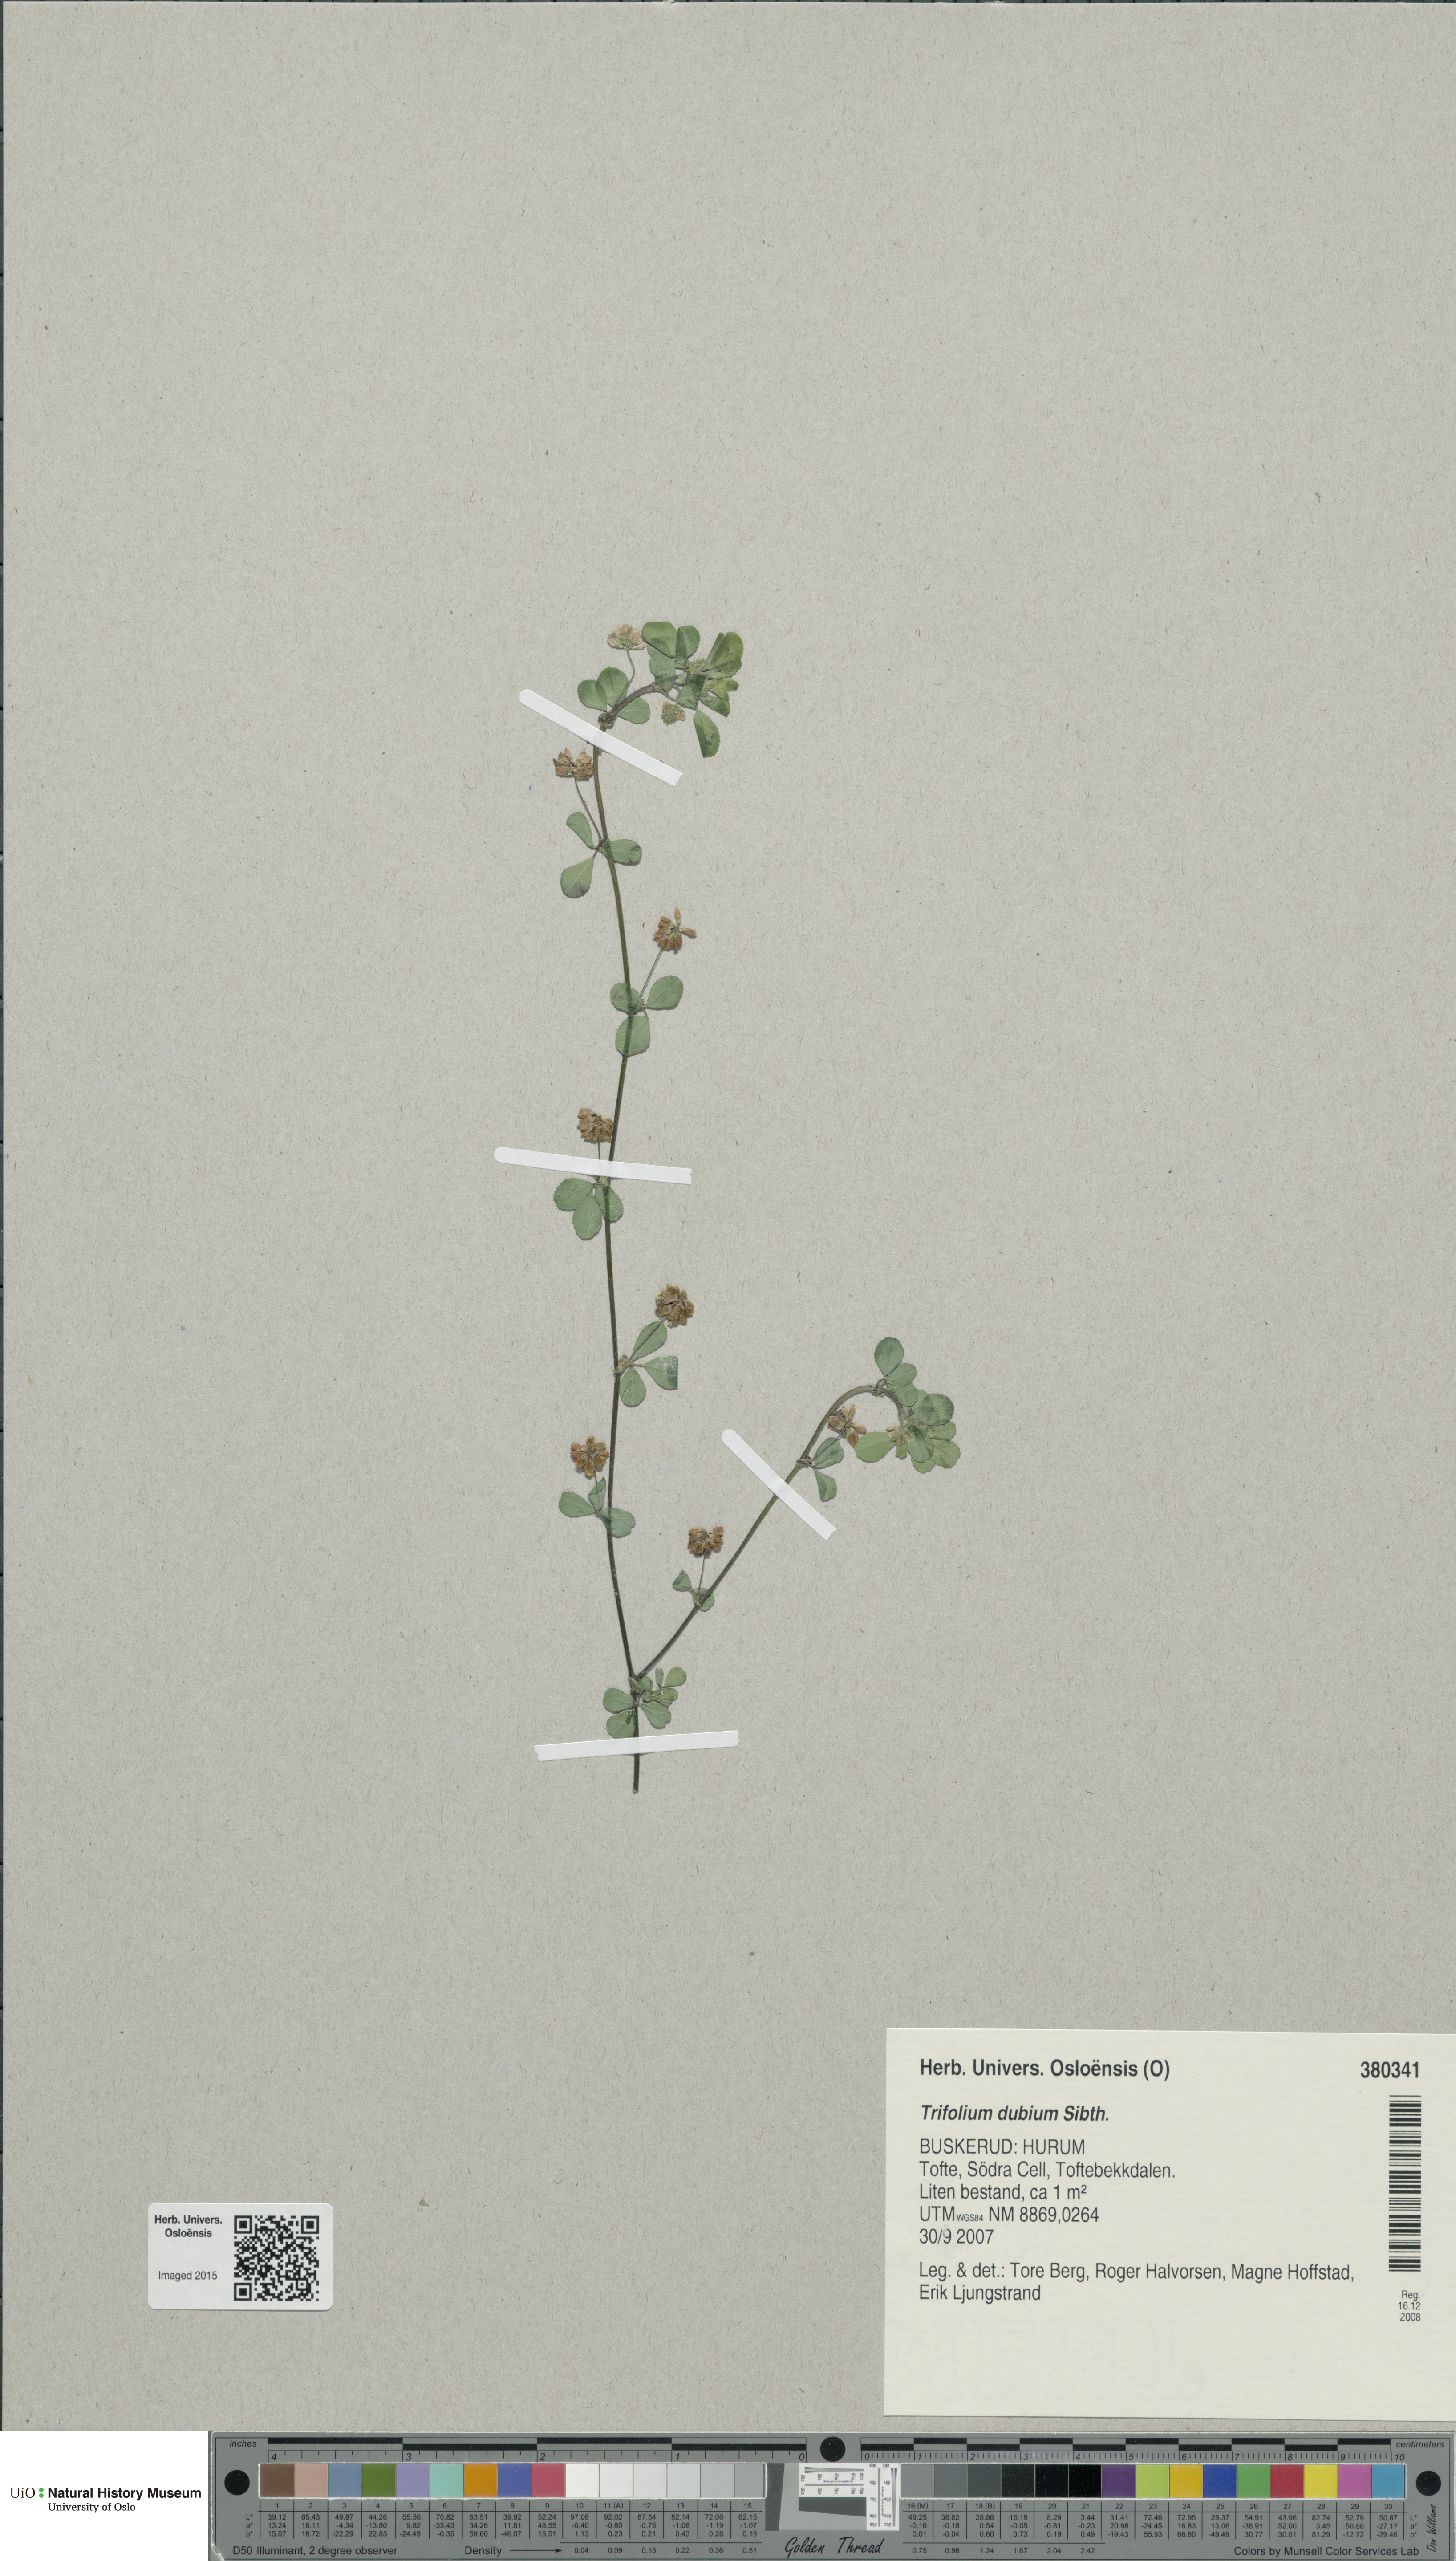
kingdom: Plantae
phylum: Tracheophyta
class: Magnoliopsida
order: Fabales
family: Fabaceae
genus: Trifolium
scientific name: Trifolium dubium
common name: Suckling clover
